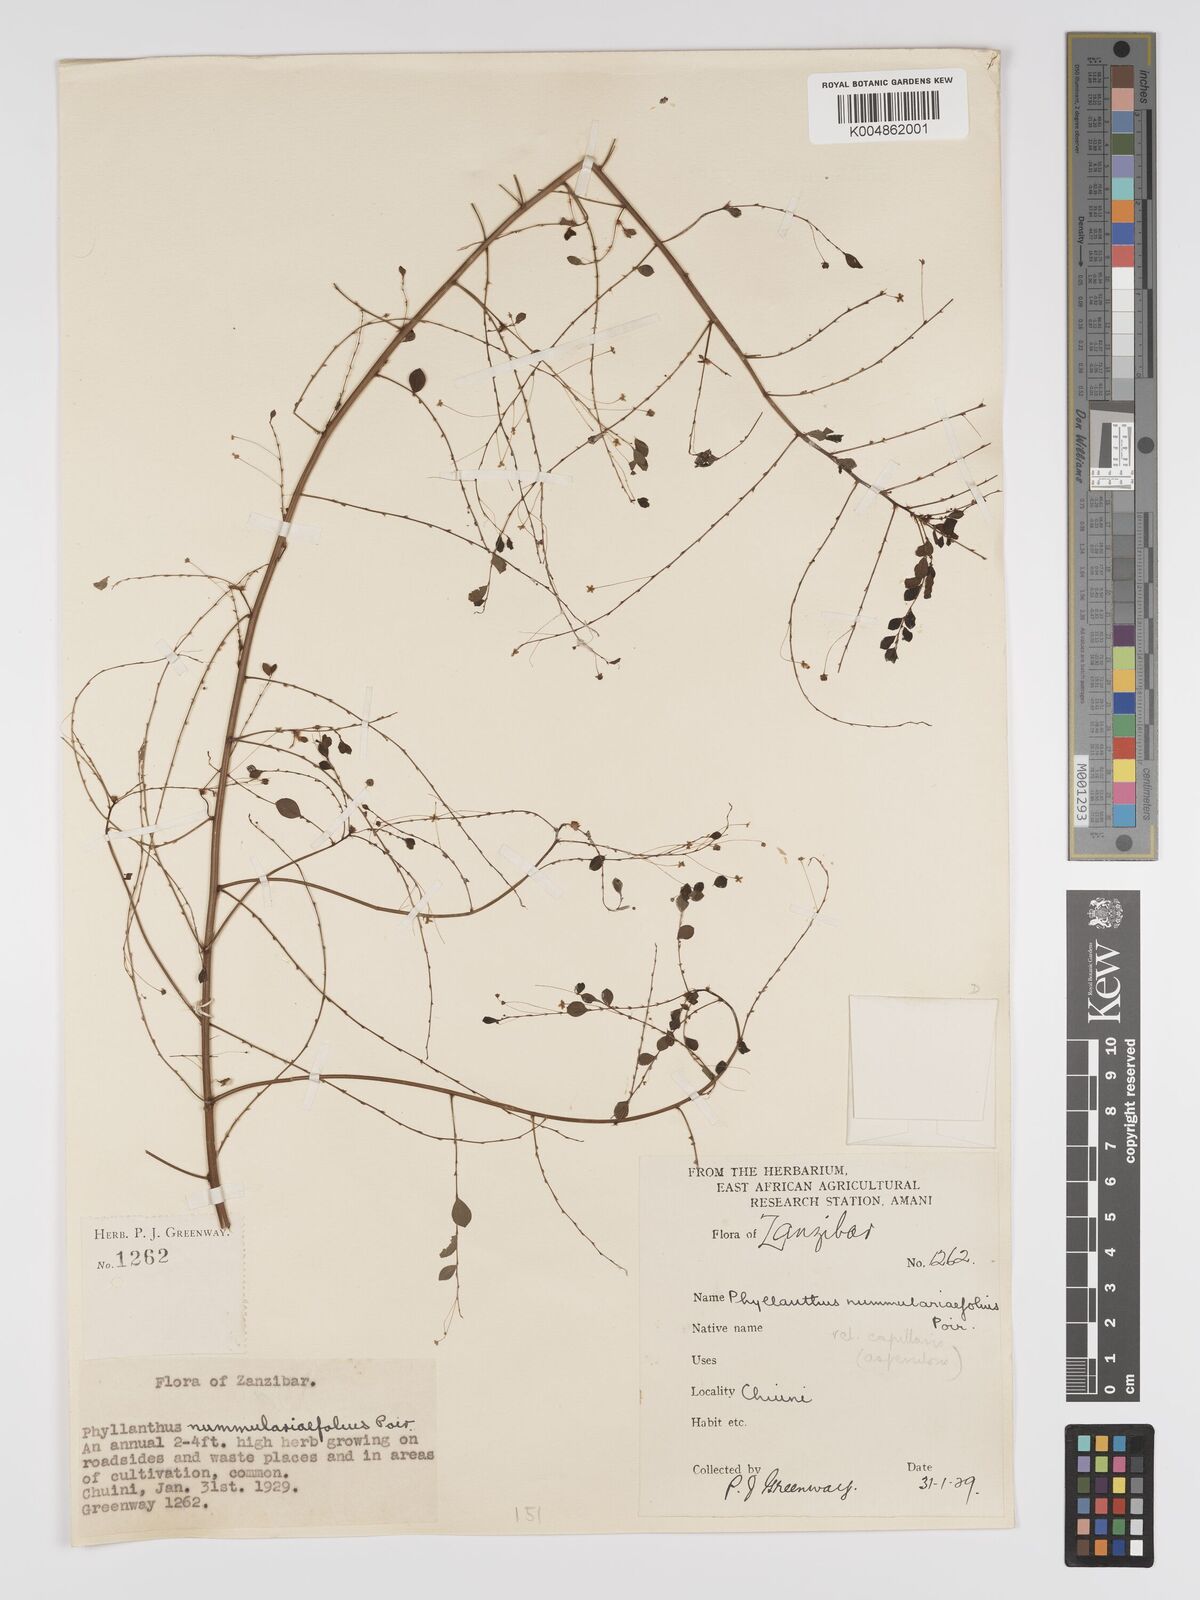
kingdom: Plantae
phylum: Tracheophyta
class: Magnoliopsida
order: Malpighiales
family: Phyllanthaceae
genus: Phyllanthus
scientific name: Phyllanthus nummulariifolius
